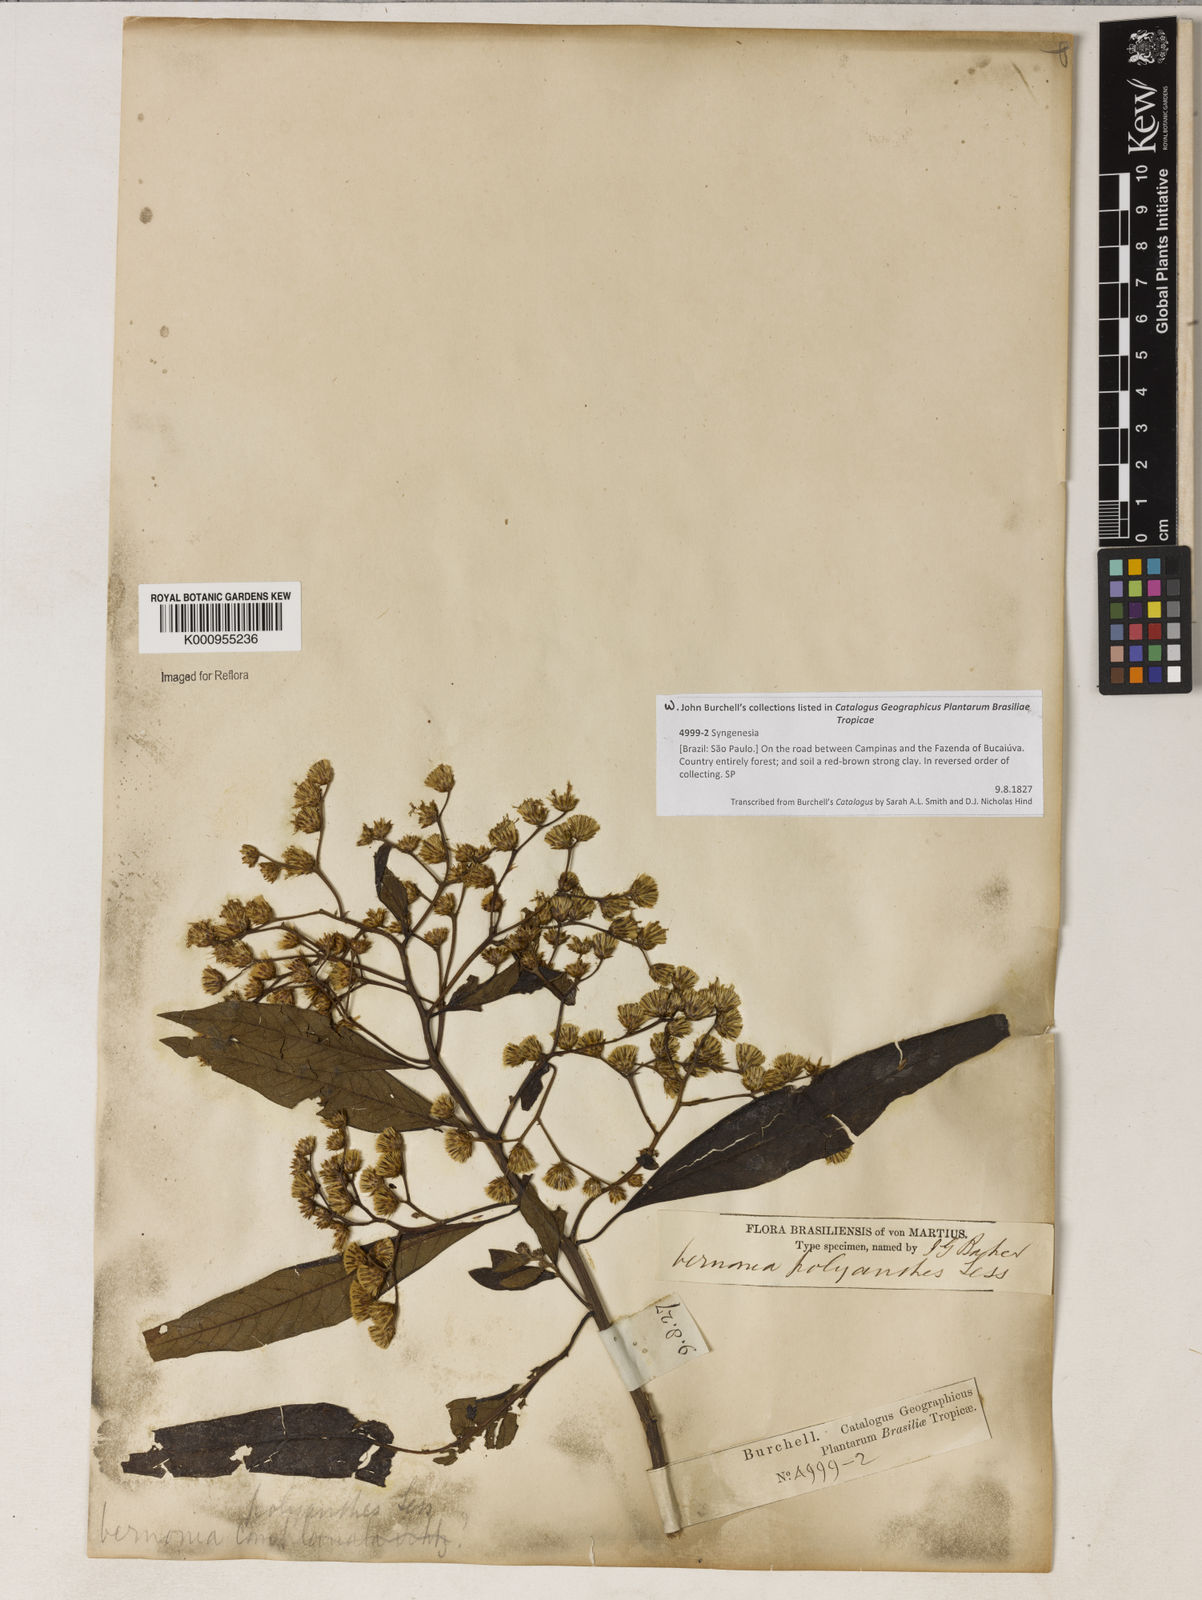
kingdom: Plantae
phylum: Tracheophyta
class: Magnoliopsida
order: Asterales
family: Asteraceae
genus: Vernonanthura
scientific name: Vernonanthura polyanthes
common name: Tree aster
